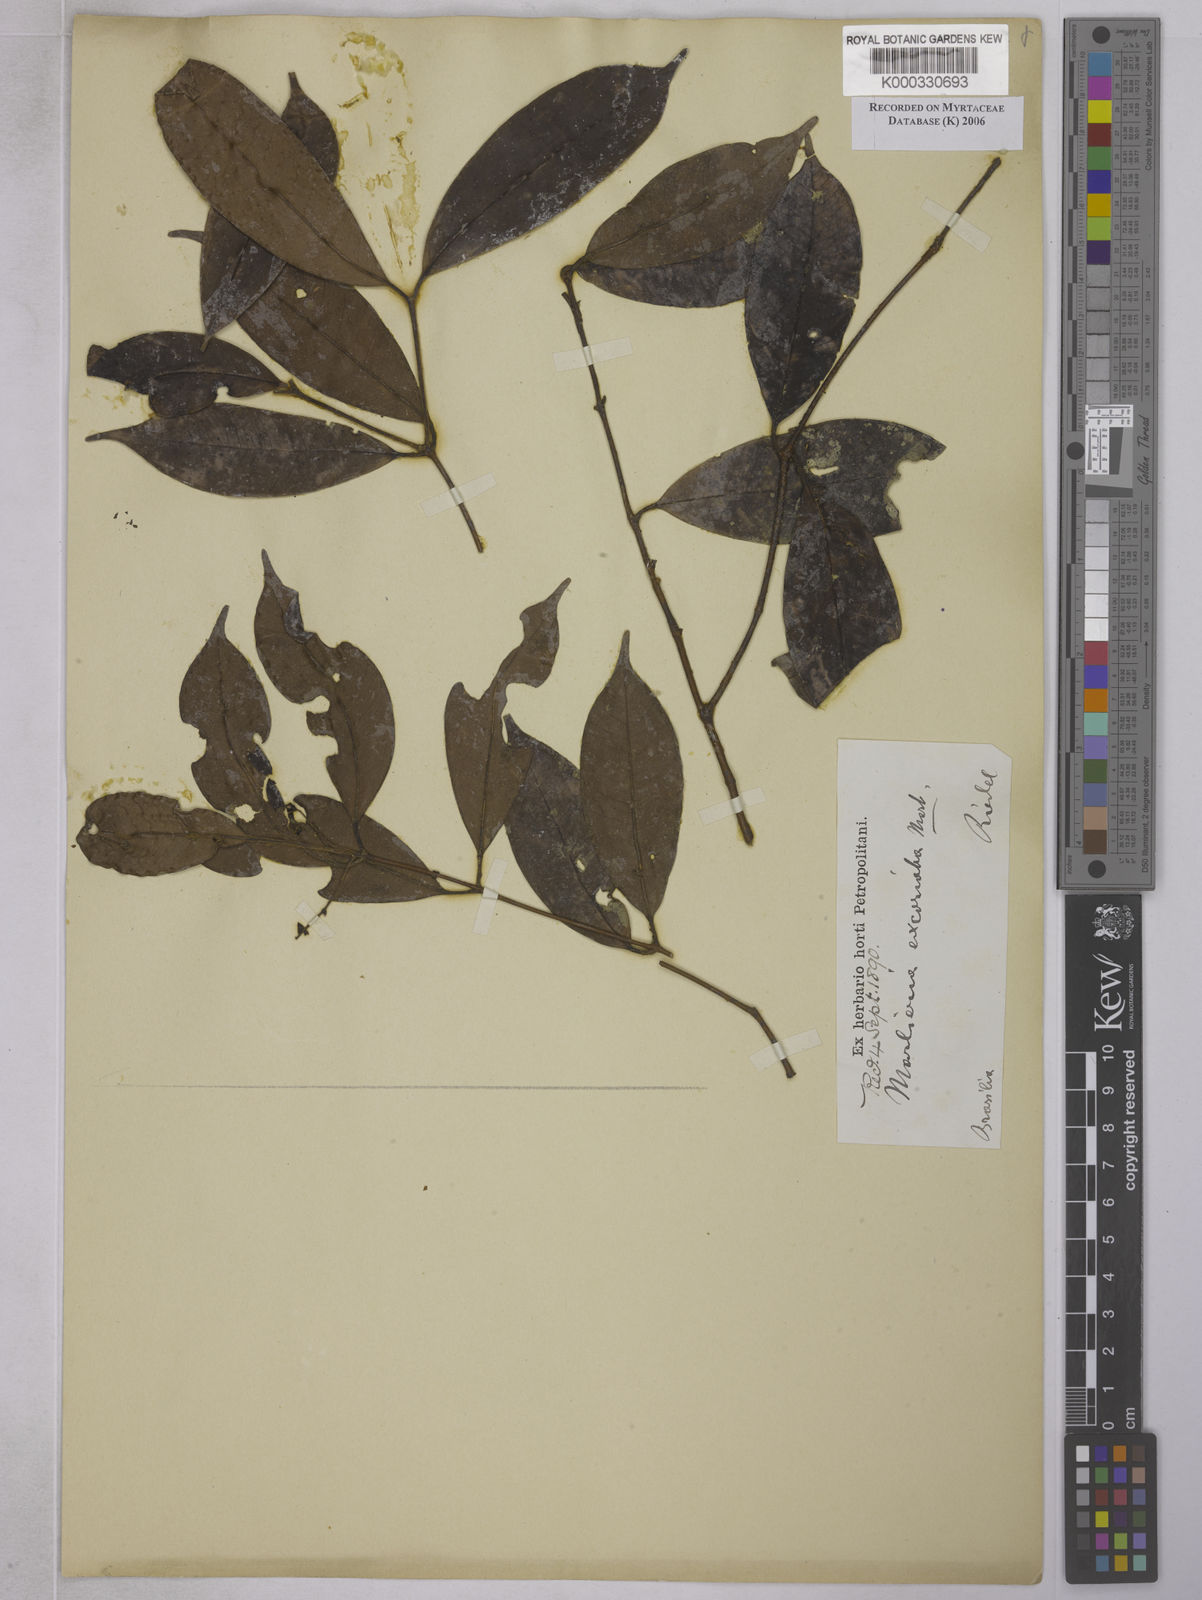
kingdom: Plantae
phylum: Tracheophyta
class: Magnoliopsida
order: Myrtales
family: Myrtaceae
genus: Myrcia
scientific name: Myrcia excoriata
